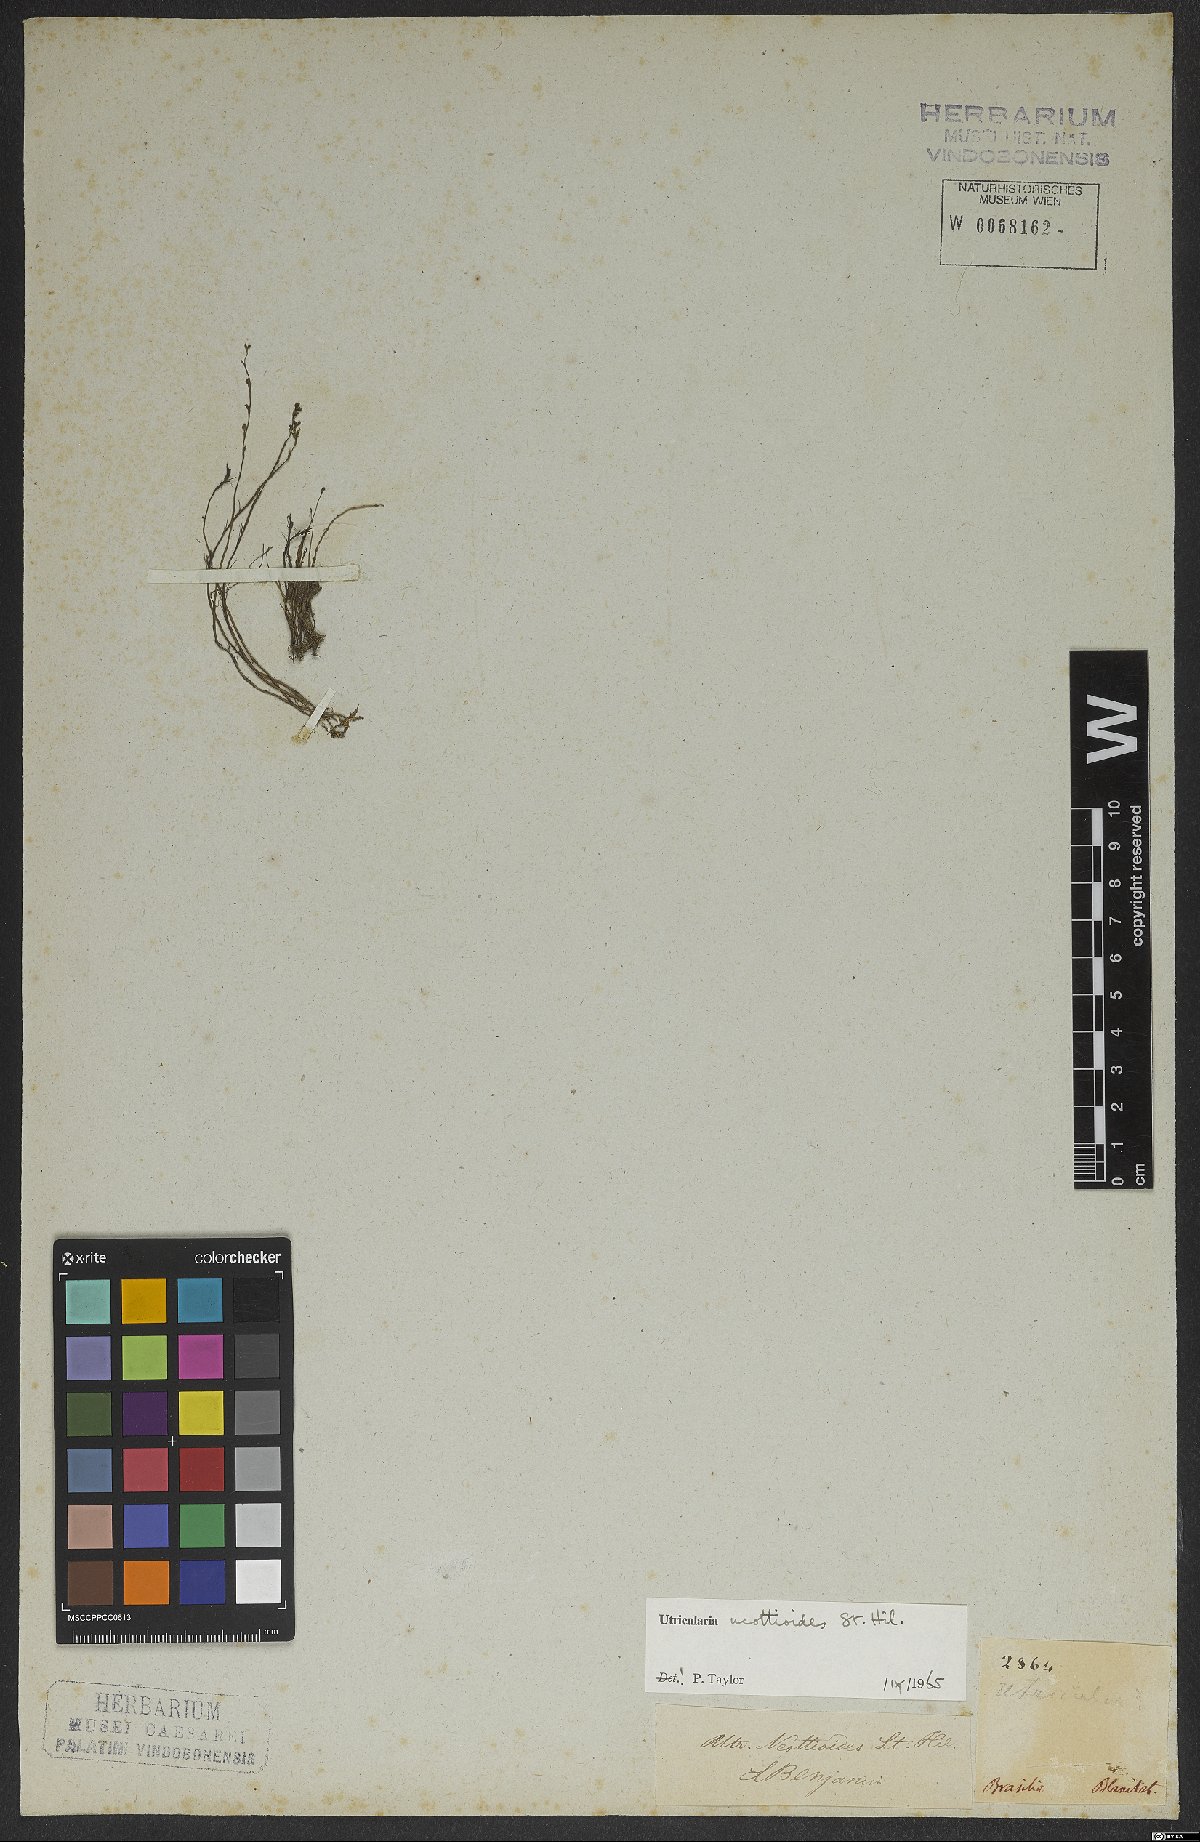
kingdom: Plantae
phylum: Tracheophyta
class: Magnoliopsida
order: Lamiales
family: Lentibulariaceae
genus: Utricularia
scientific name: Utricularia neottioides
